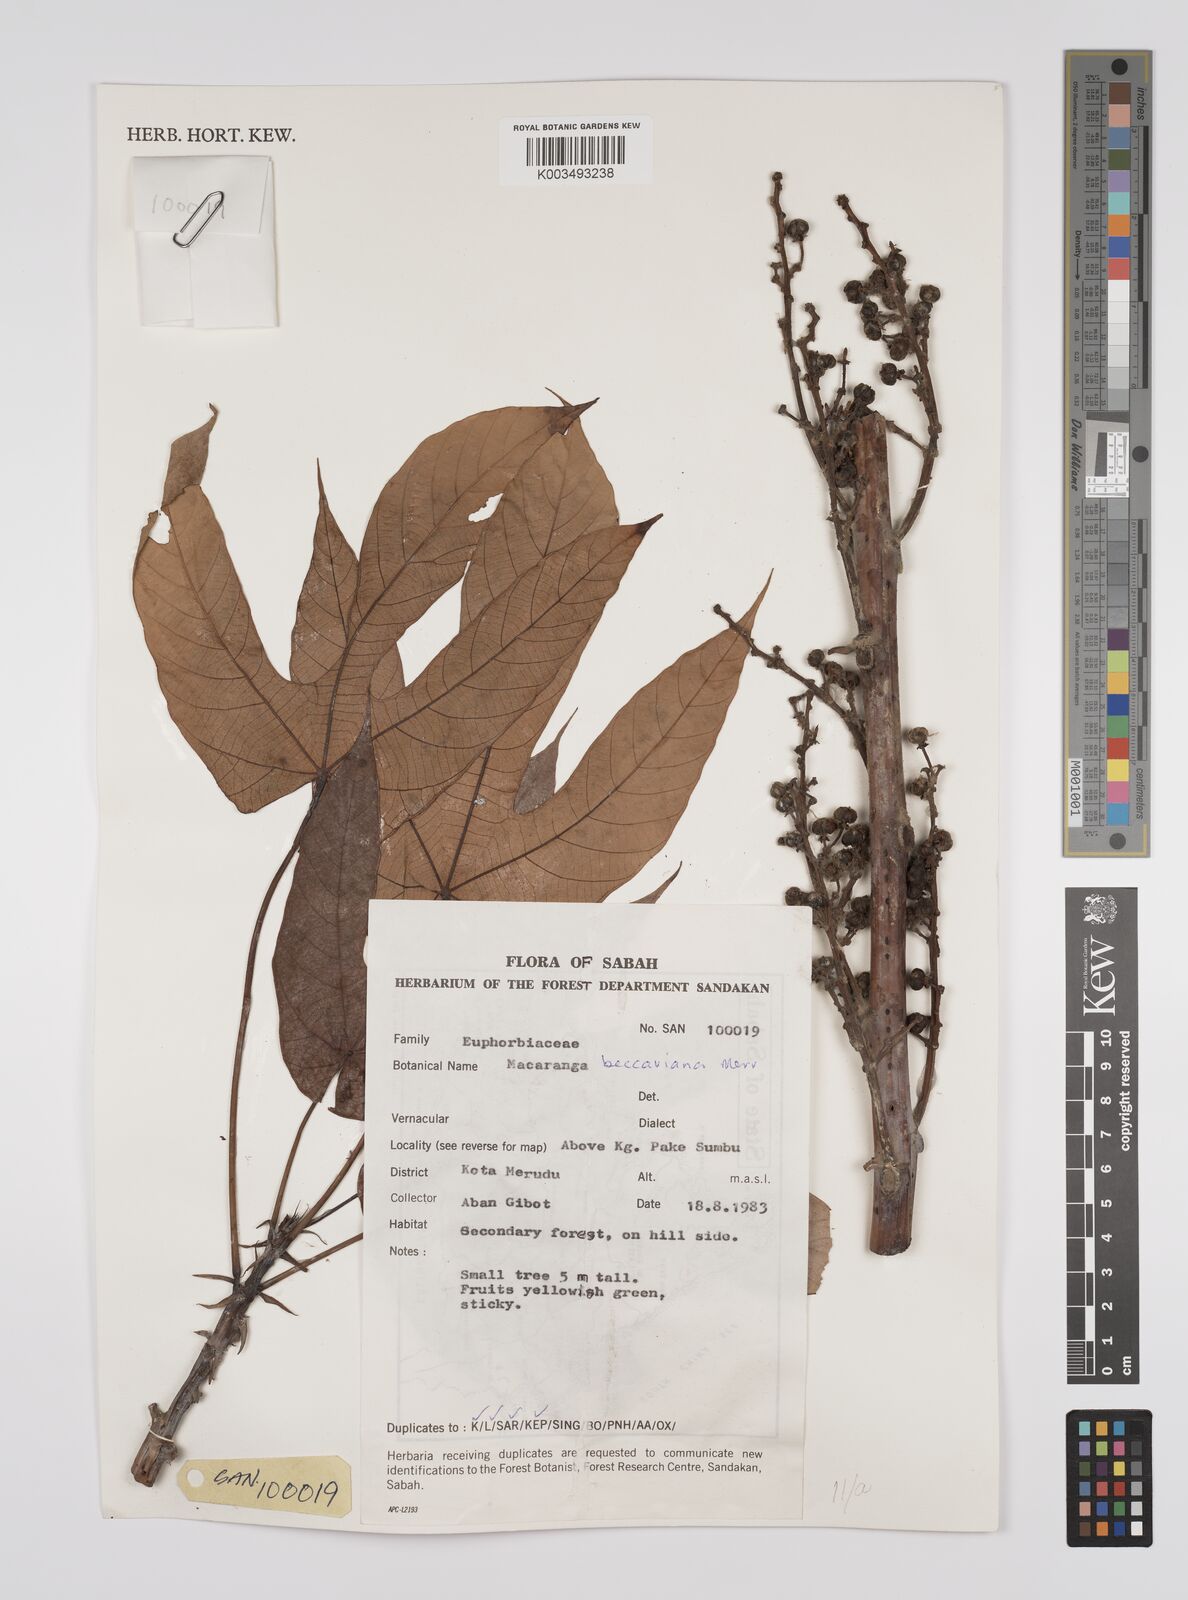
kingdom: Plantae
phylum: Tracheophyta
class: Magnoliopsida
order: Malpighiales
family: Euphorbiaceae
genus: Macaranga
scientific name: Macaranga beccariana
